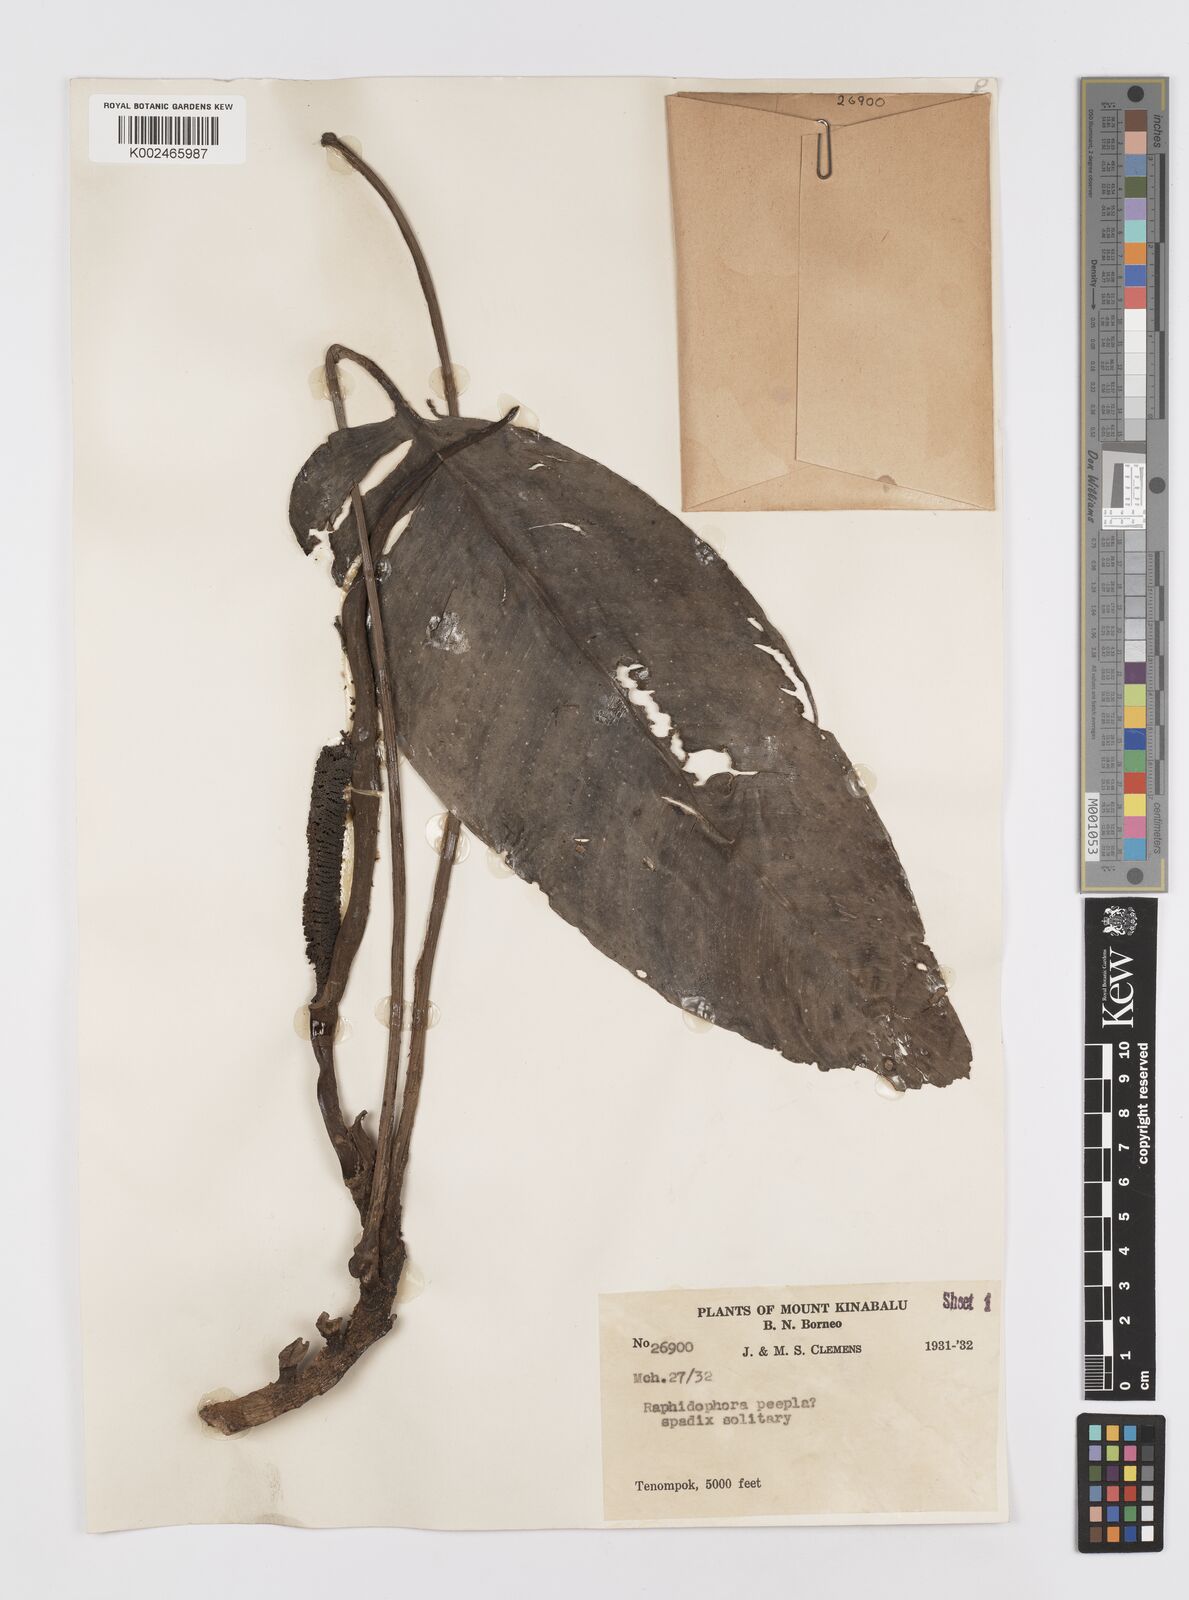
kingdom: Plantae
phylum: Tracheophyta
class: Liliopsida
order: Alismatales
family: Araceae
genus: Rhaphidophora
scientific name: Rhaphidophora puberula
